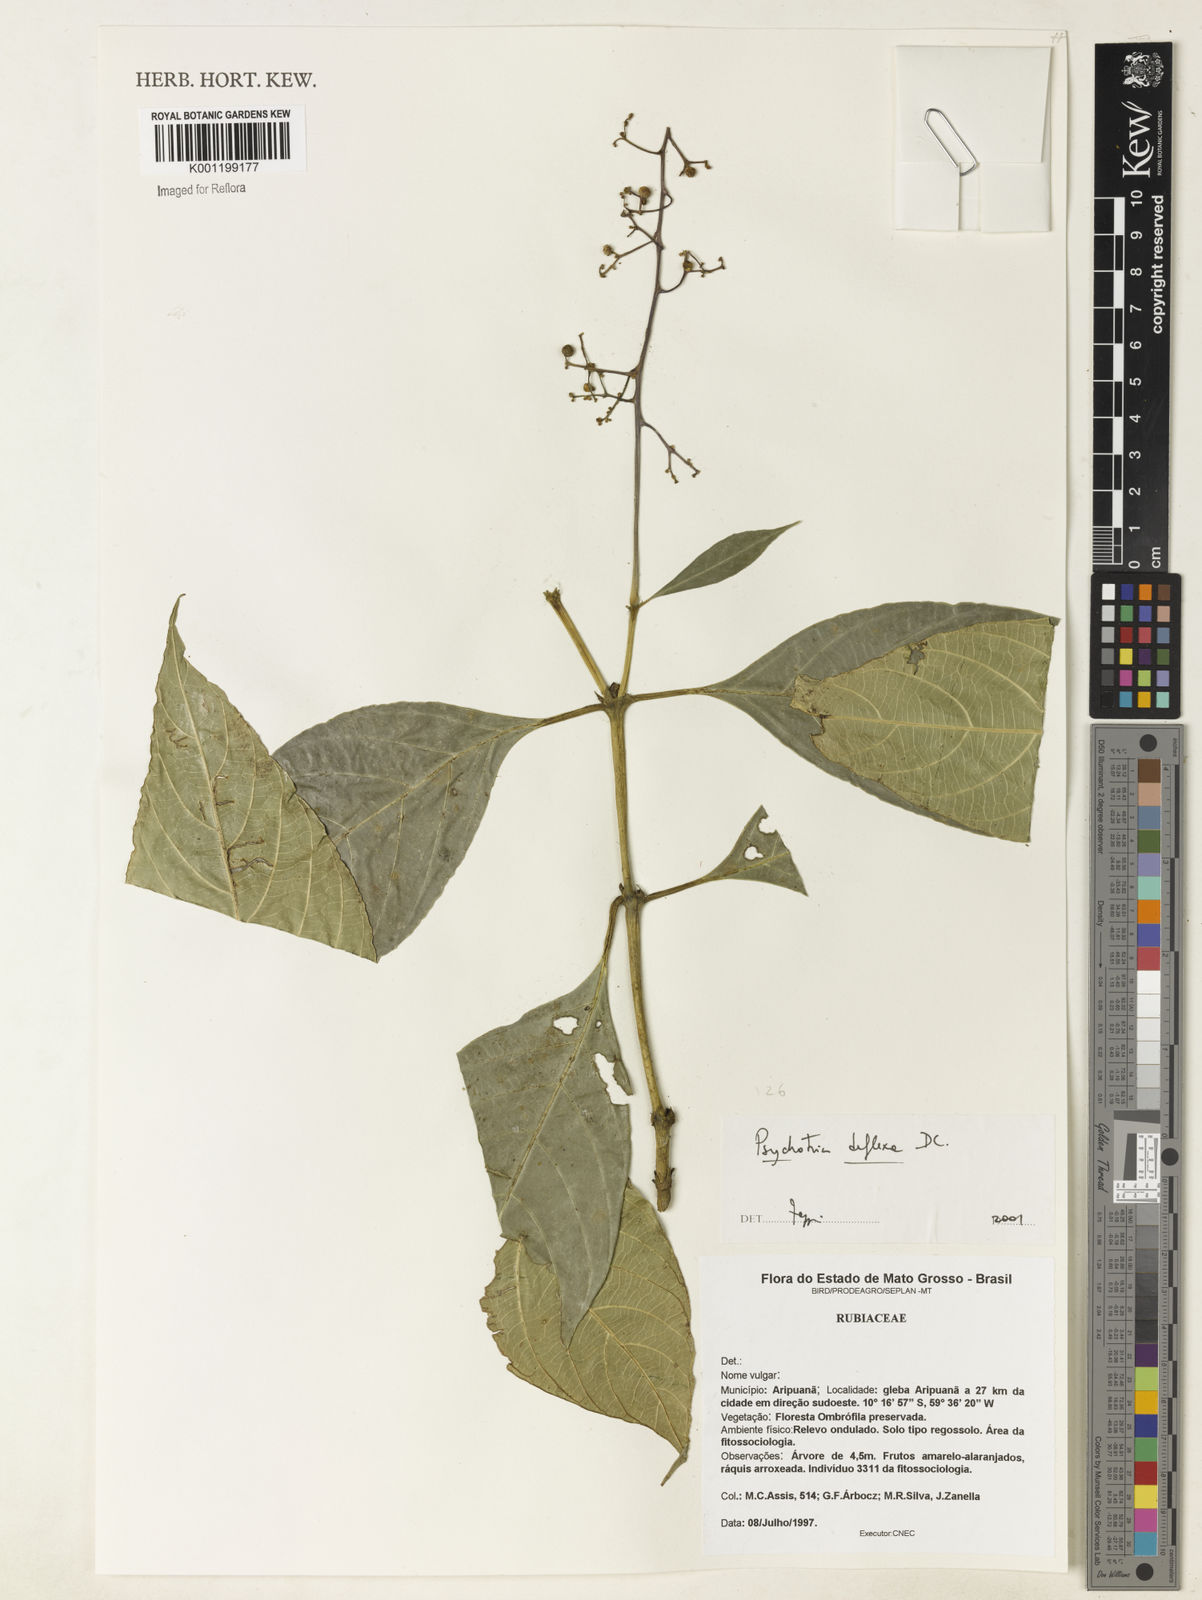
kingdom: Plantae
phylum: Tracheophyta
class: Magnoliopsida
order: Gentianales
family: Rubiaceae
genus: Palicourea
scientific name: Palicourea deflexa
